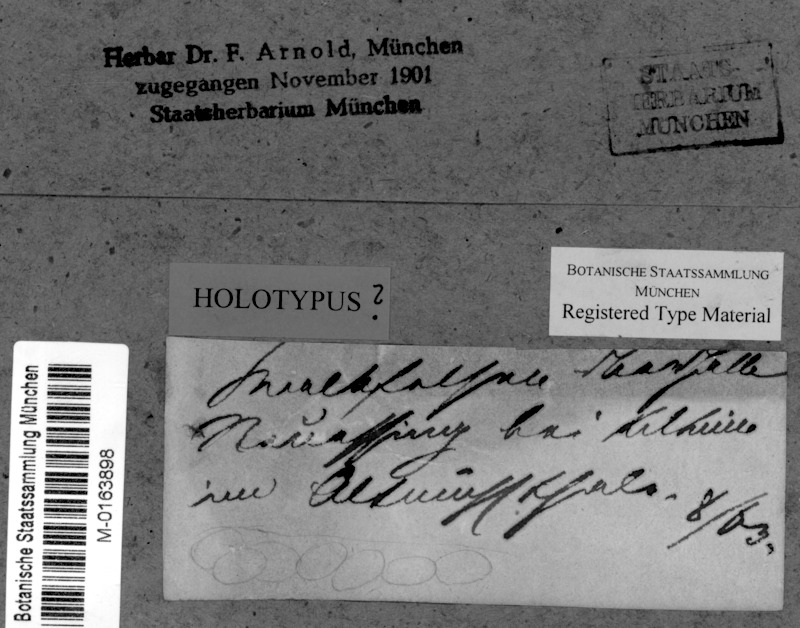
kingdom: Fungi
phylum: Ascomycota
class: Eurotiomycetes
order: Verrucariales
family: Verrucariaceae
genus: Parabagliettoa
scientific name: Parabagliettoa disjuncta
